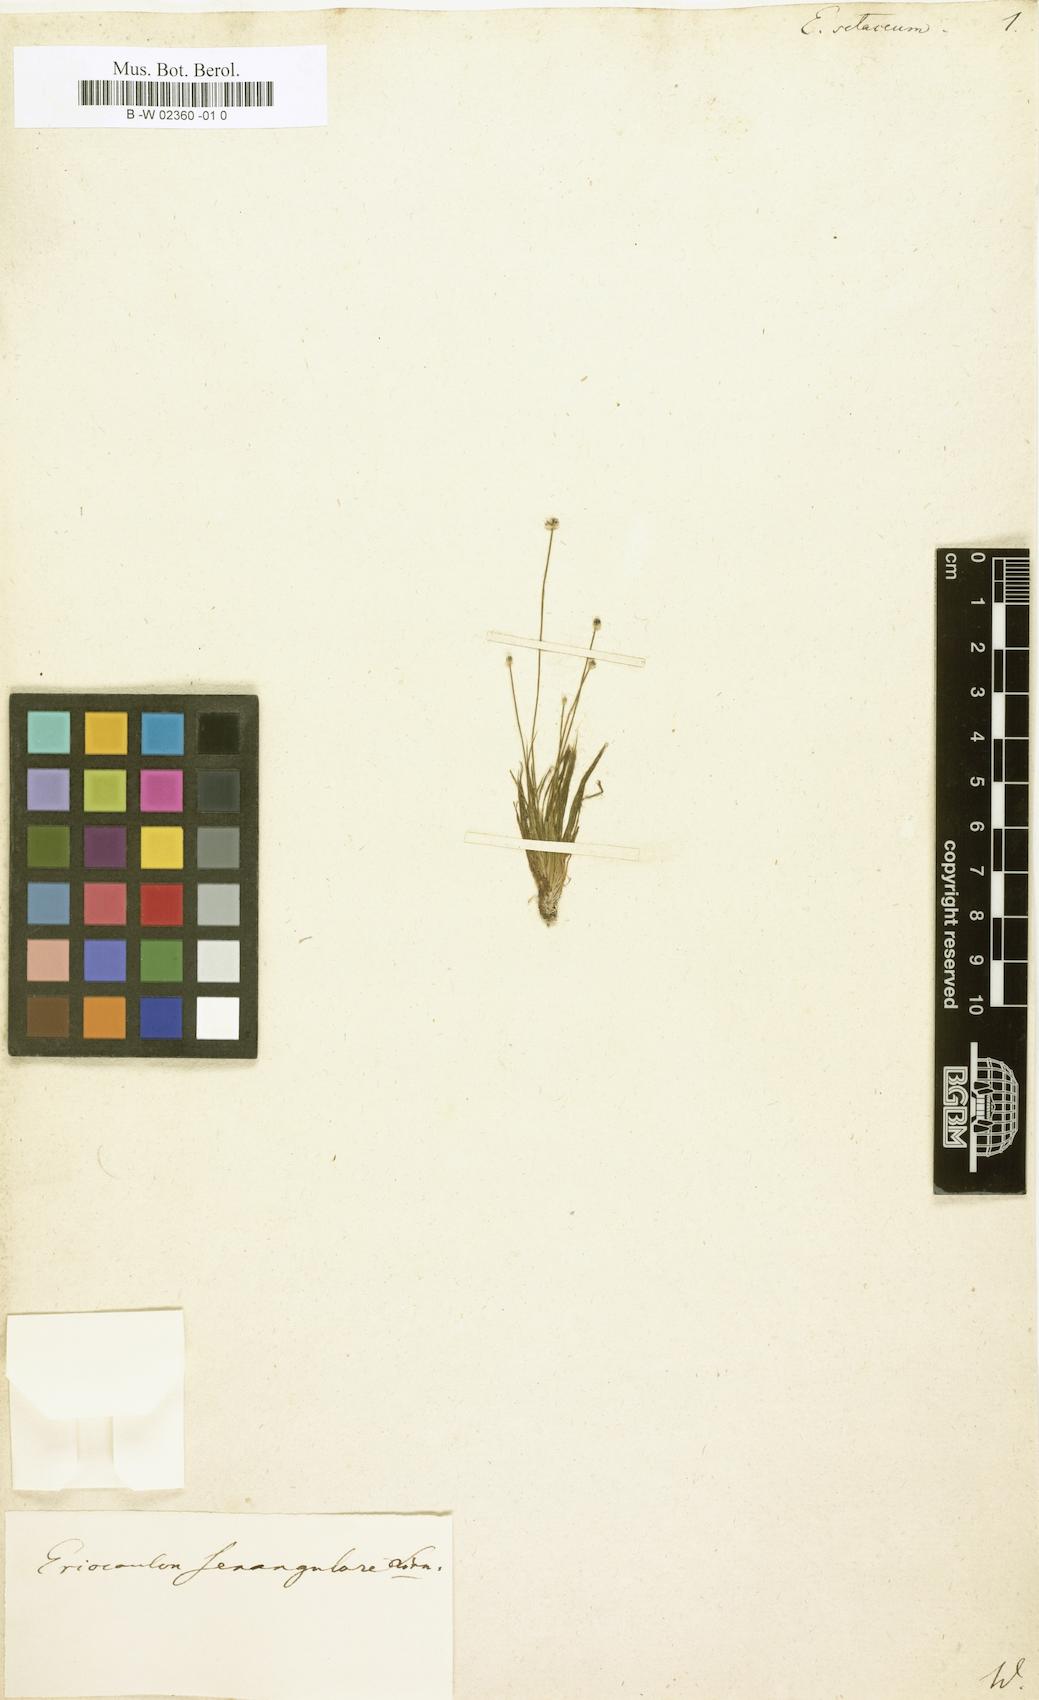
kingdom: Plantae
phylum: Tracheophyta
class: Liliopsida
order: Poales
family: Eriocaulaceae
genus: Eriocaulon
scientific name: Eriocaulon setaceum
